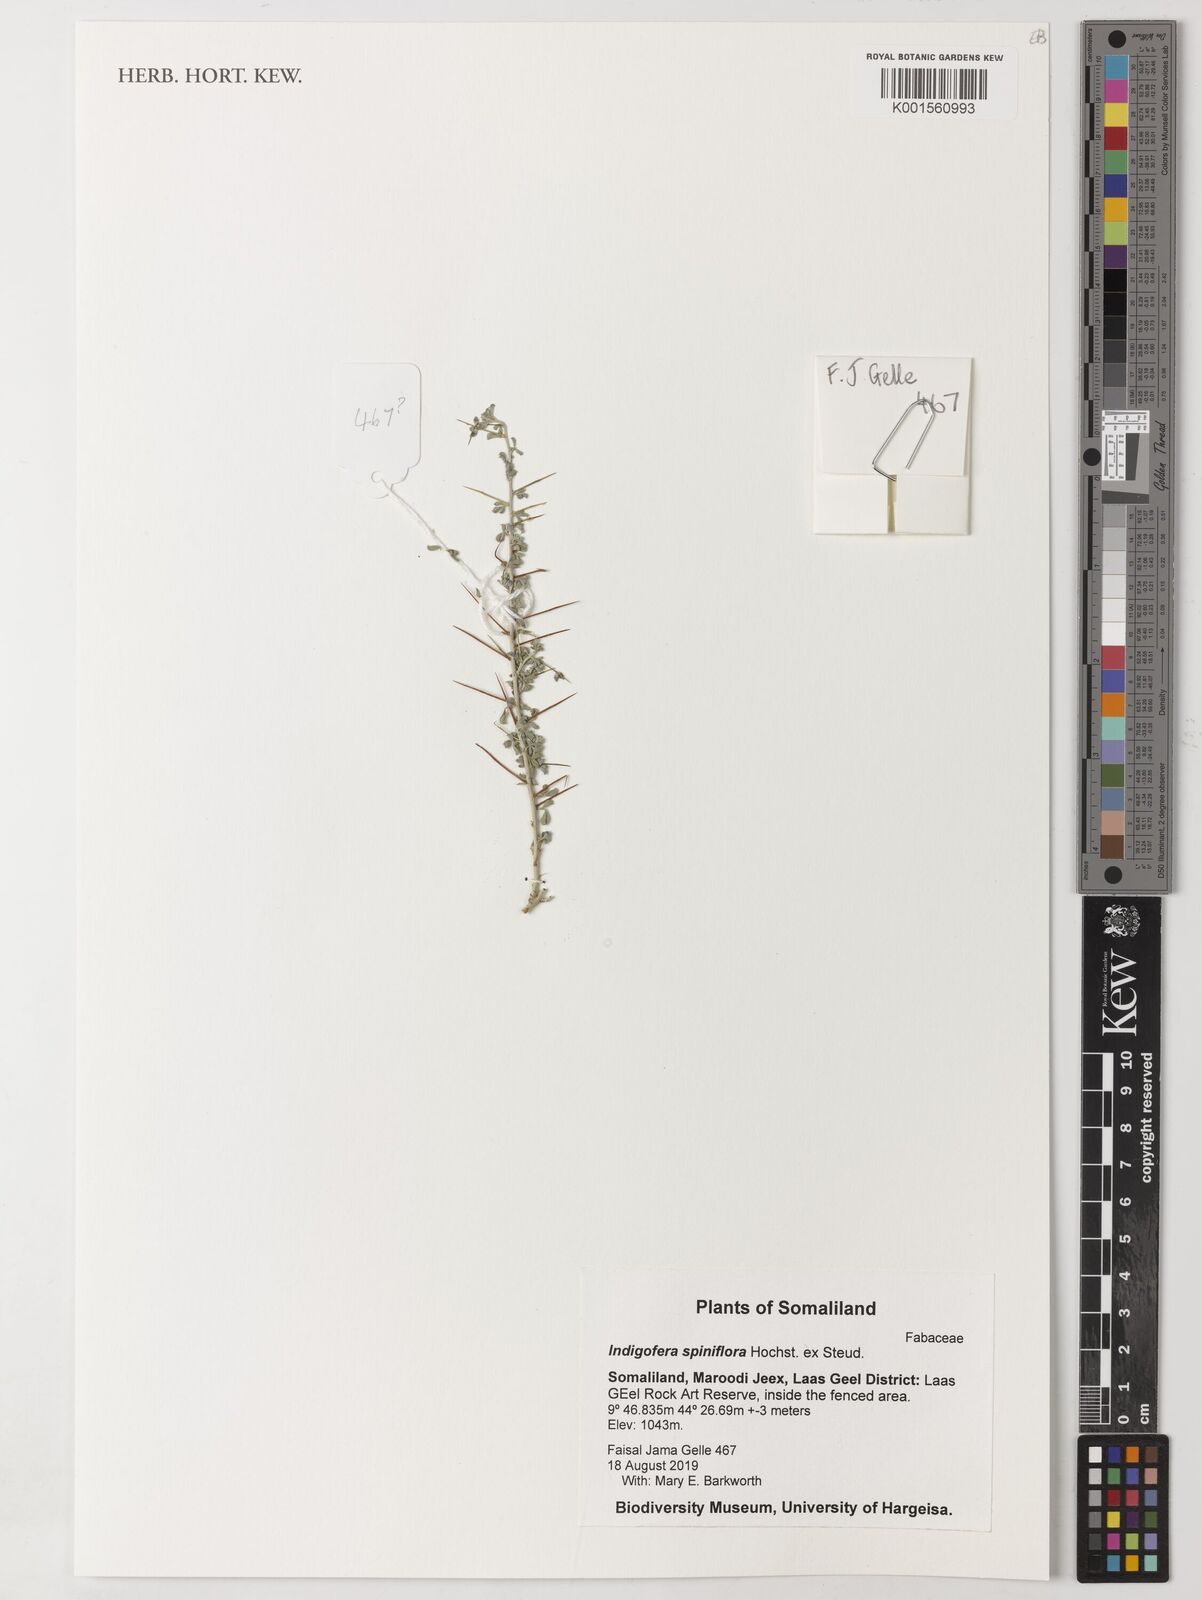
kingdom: Plantae
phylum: Tracheophyta
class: Magnoliopsida
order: Fabales
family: Fabaceae
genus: Indigofera
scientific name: Indigofera spiniflora
